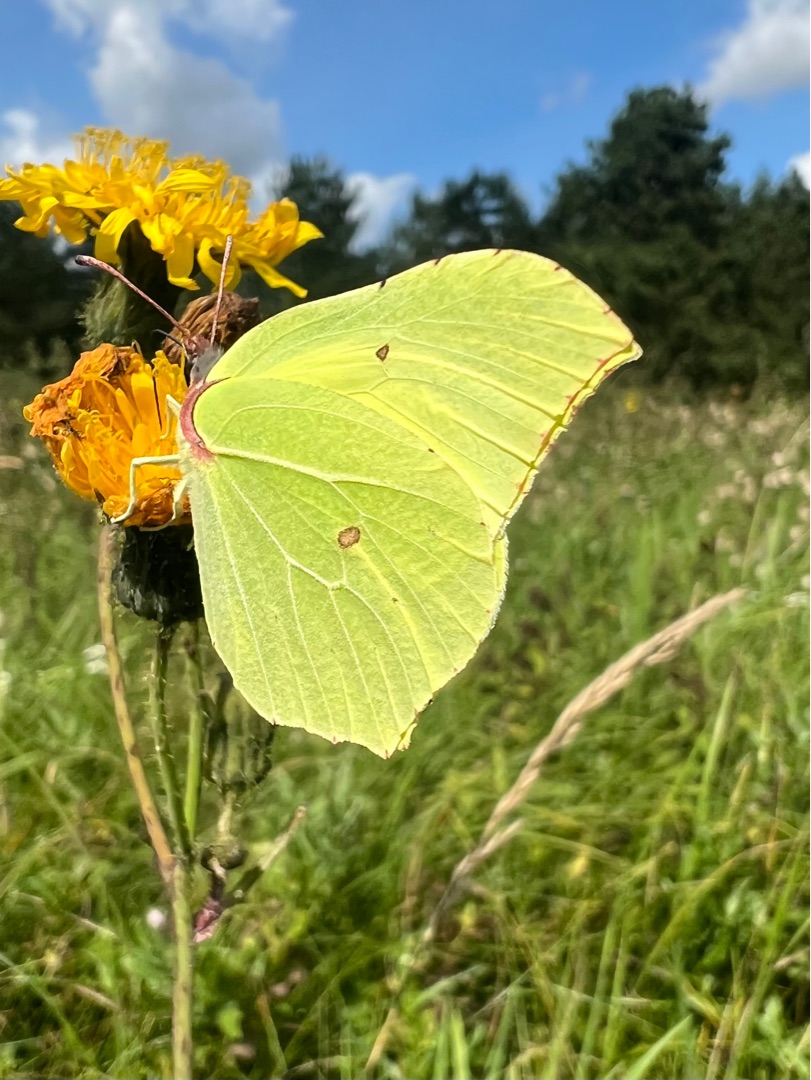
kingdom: Animalia
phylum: Arthropoda
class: Insecta
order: Lepidoptera
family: Pieridae
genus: Gonepteryx
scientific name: Gonepteryx rhamni
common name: Citronsommerfugl
